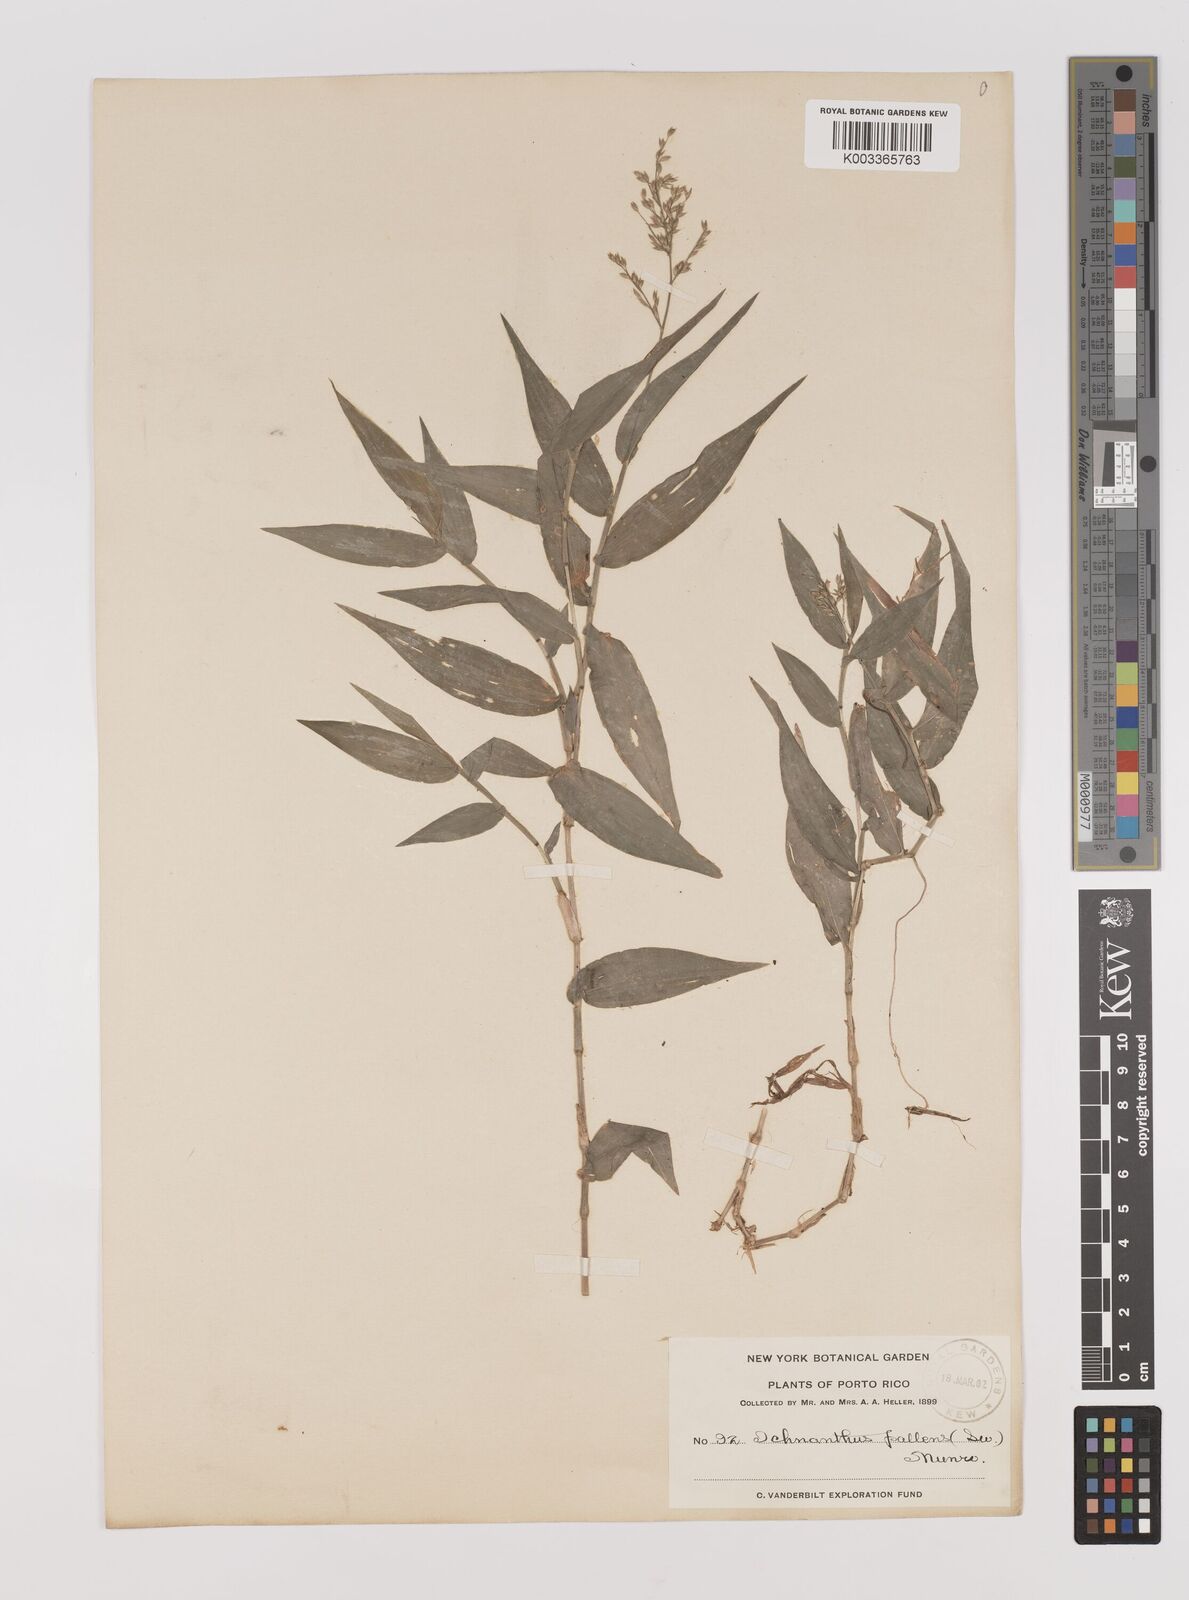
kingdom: Plantae
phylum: Tracheophyta
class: Liliopsida
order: Poales
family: Poaceae
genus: Ichnanthus
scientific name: Ichnanthus pallens
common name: Water grass
